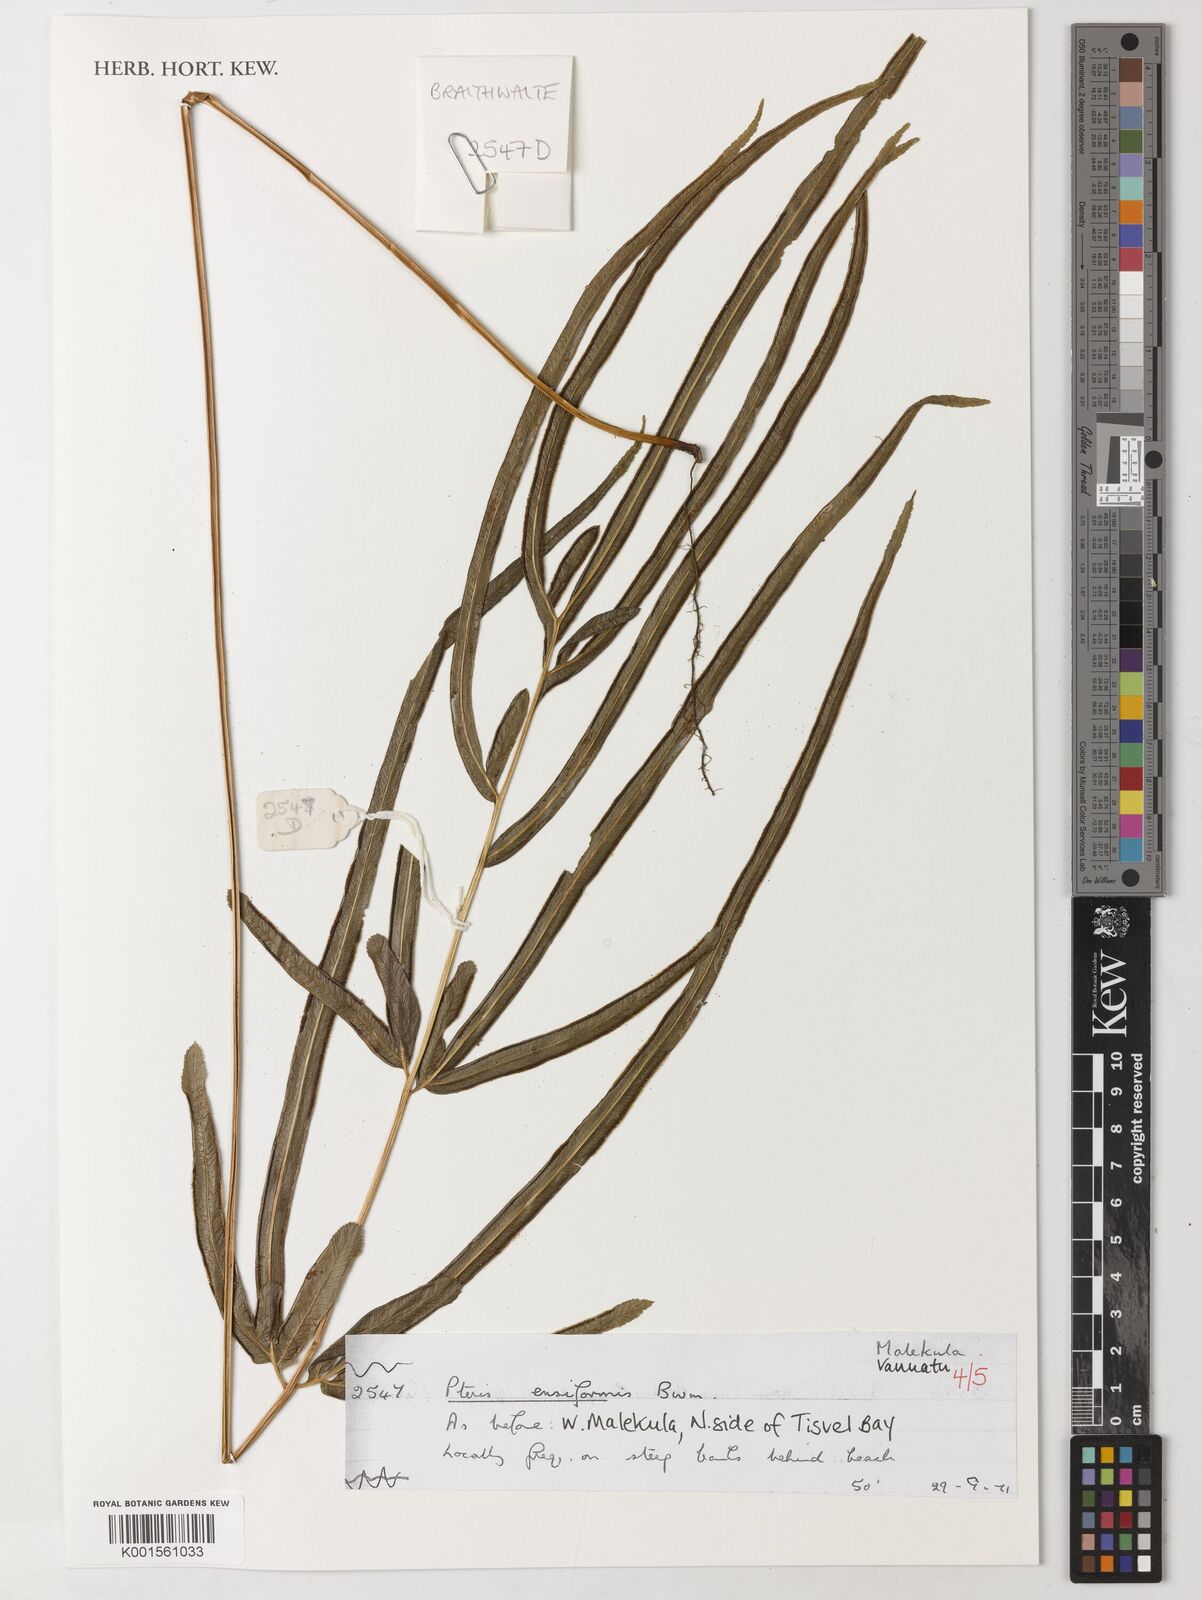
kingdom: Plantae
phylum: Tracheophyta
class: Polypodiopsida
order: Polypodiales
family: Pteridaceae
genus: Pteris
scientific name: Pteris ensiformis
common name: Sword brake
